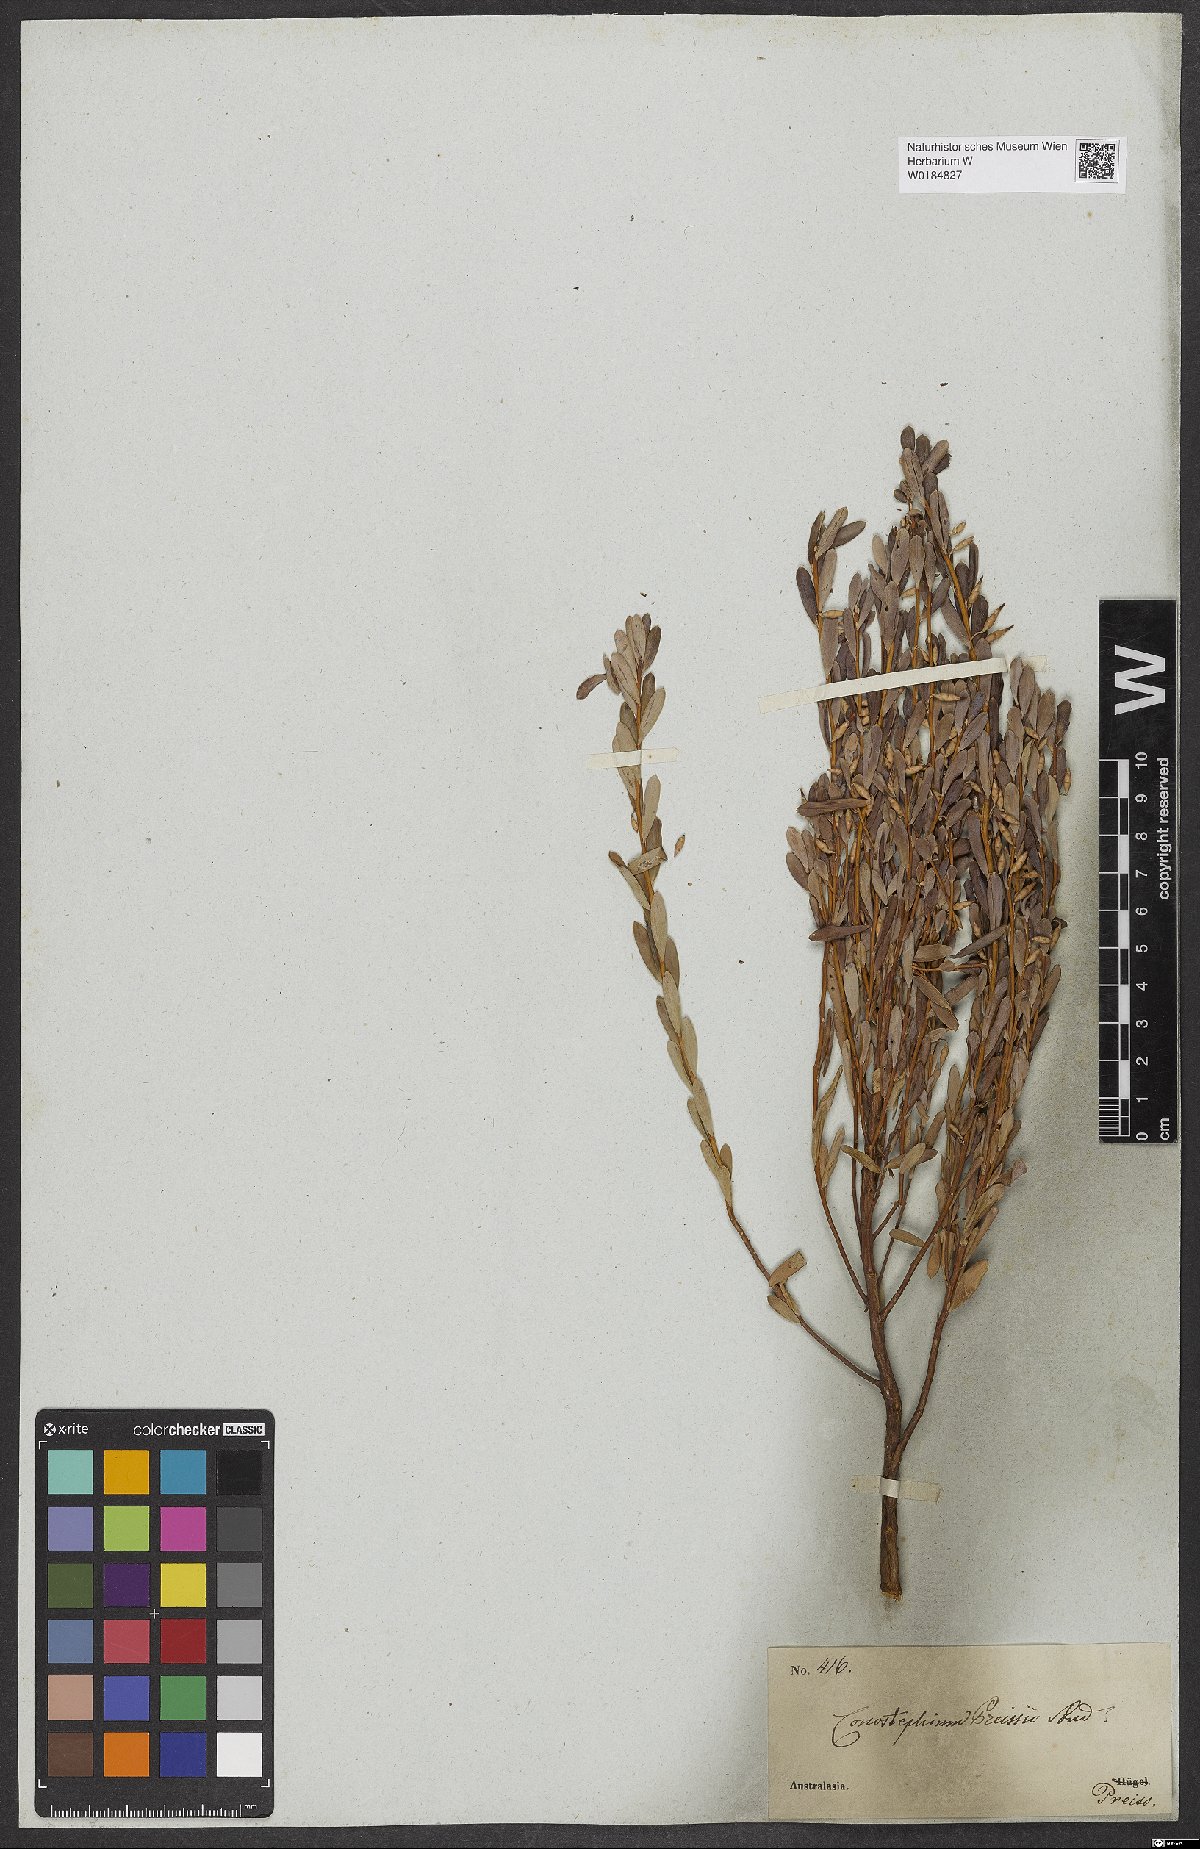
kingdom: Plantae
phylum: Tracheophyta
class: Magnoliopsida
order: Ericales
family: Ericaceae
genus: Conostephium
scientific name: Conostephium preissii
